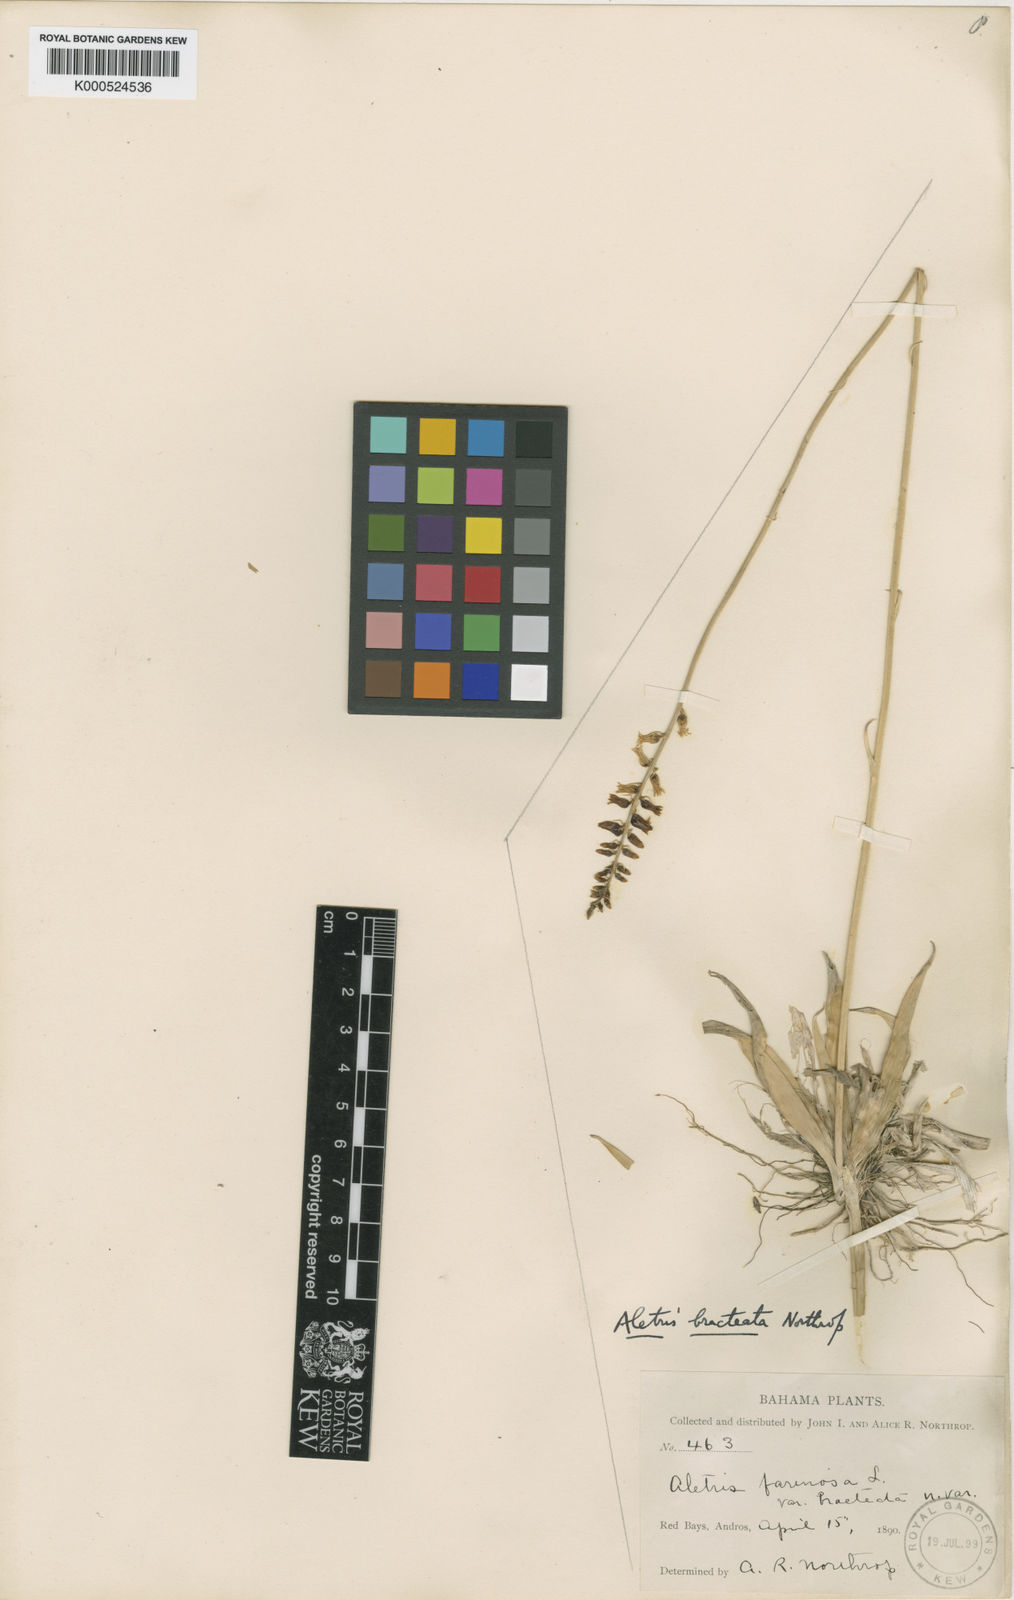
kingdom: Plantae
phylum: Tracheophyta
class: Liliopsida
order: Dioscoreales
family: Nartheciaceae
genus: Aletris
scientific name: Aletris bracteata
